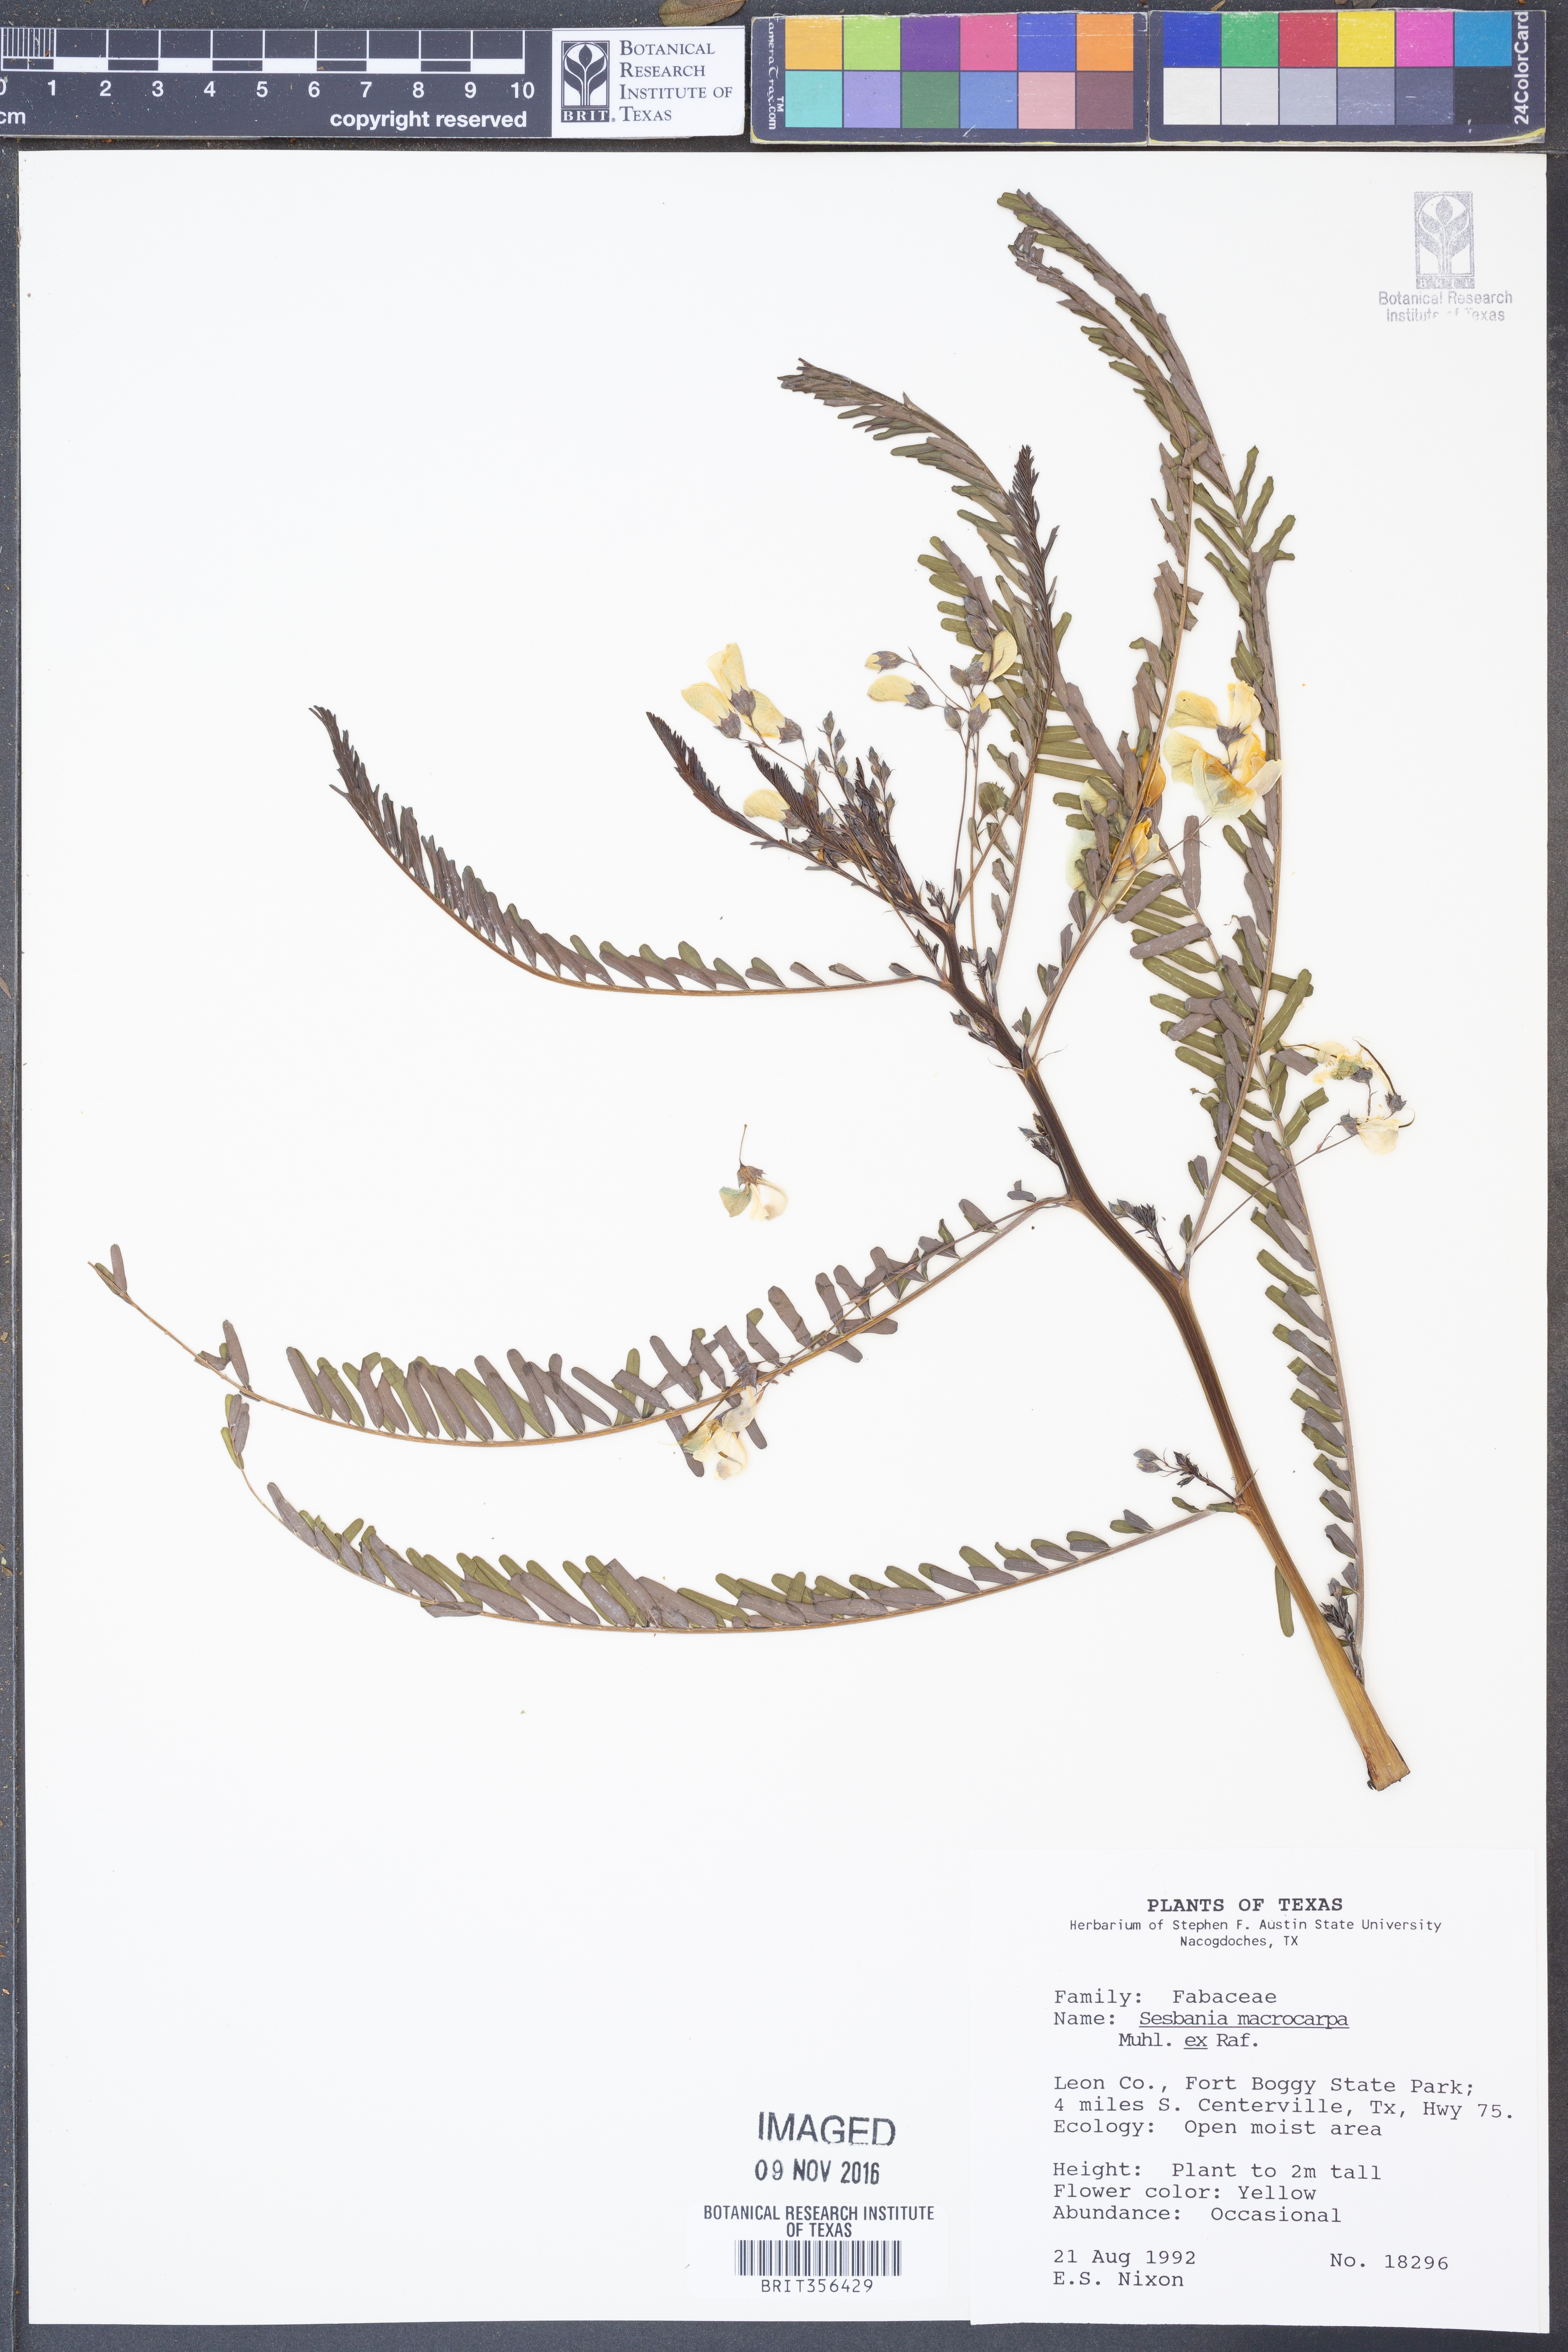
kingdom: Plantae
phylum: Tracheophyta
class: Magnoliopsida
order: Fabales
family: Fabaceae
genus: Sesbania
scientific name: Sesbania vesicaria
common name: Bagpod
